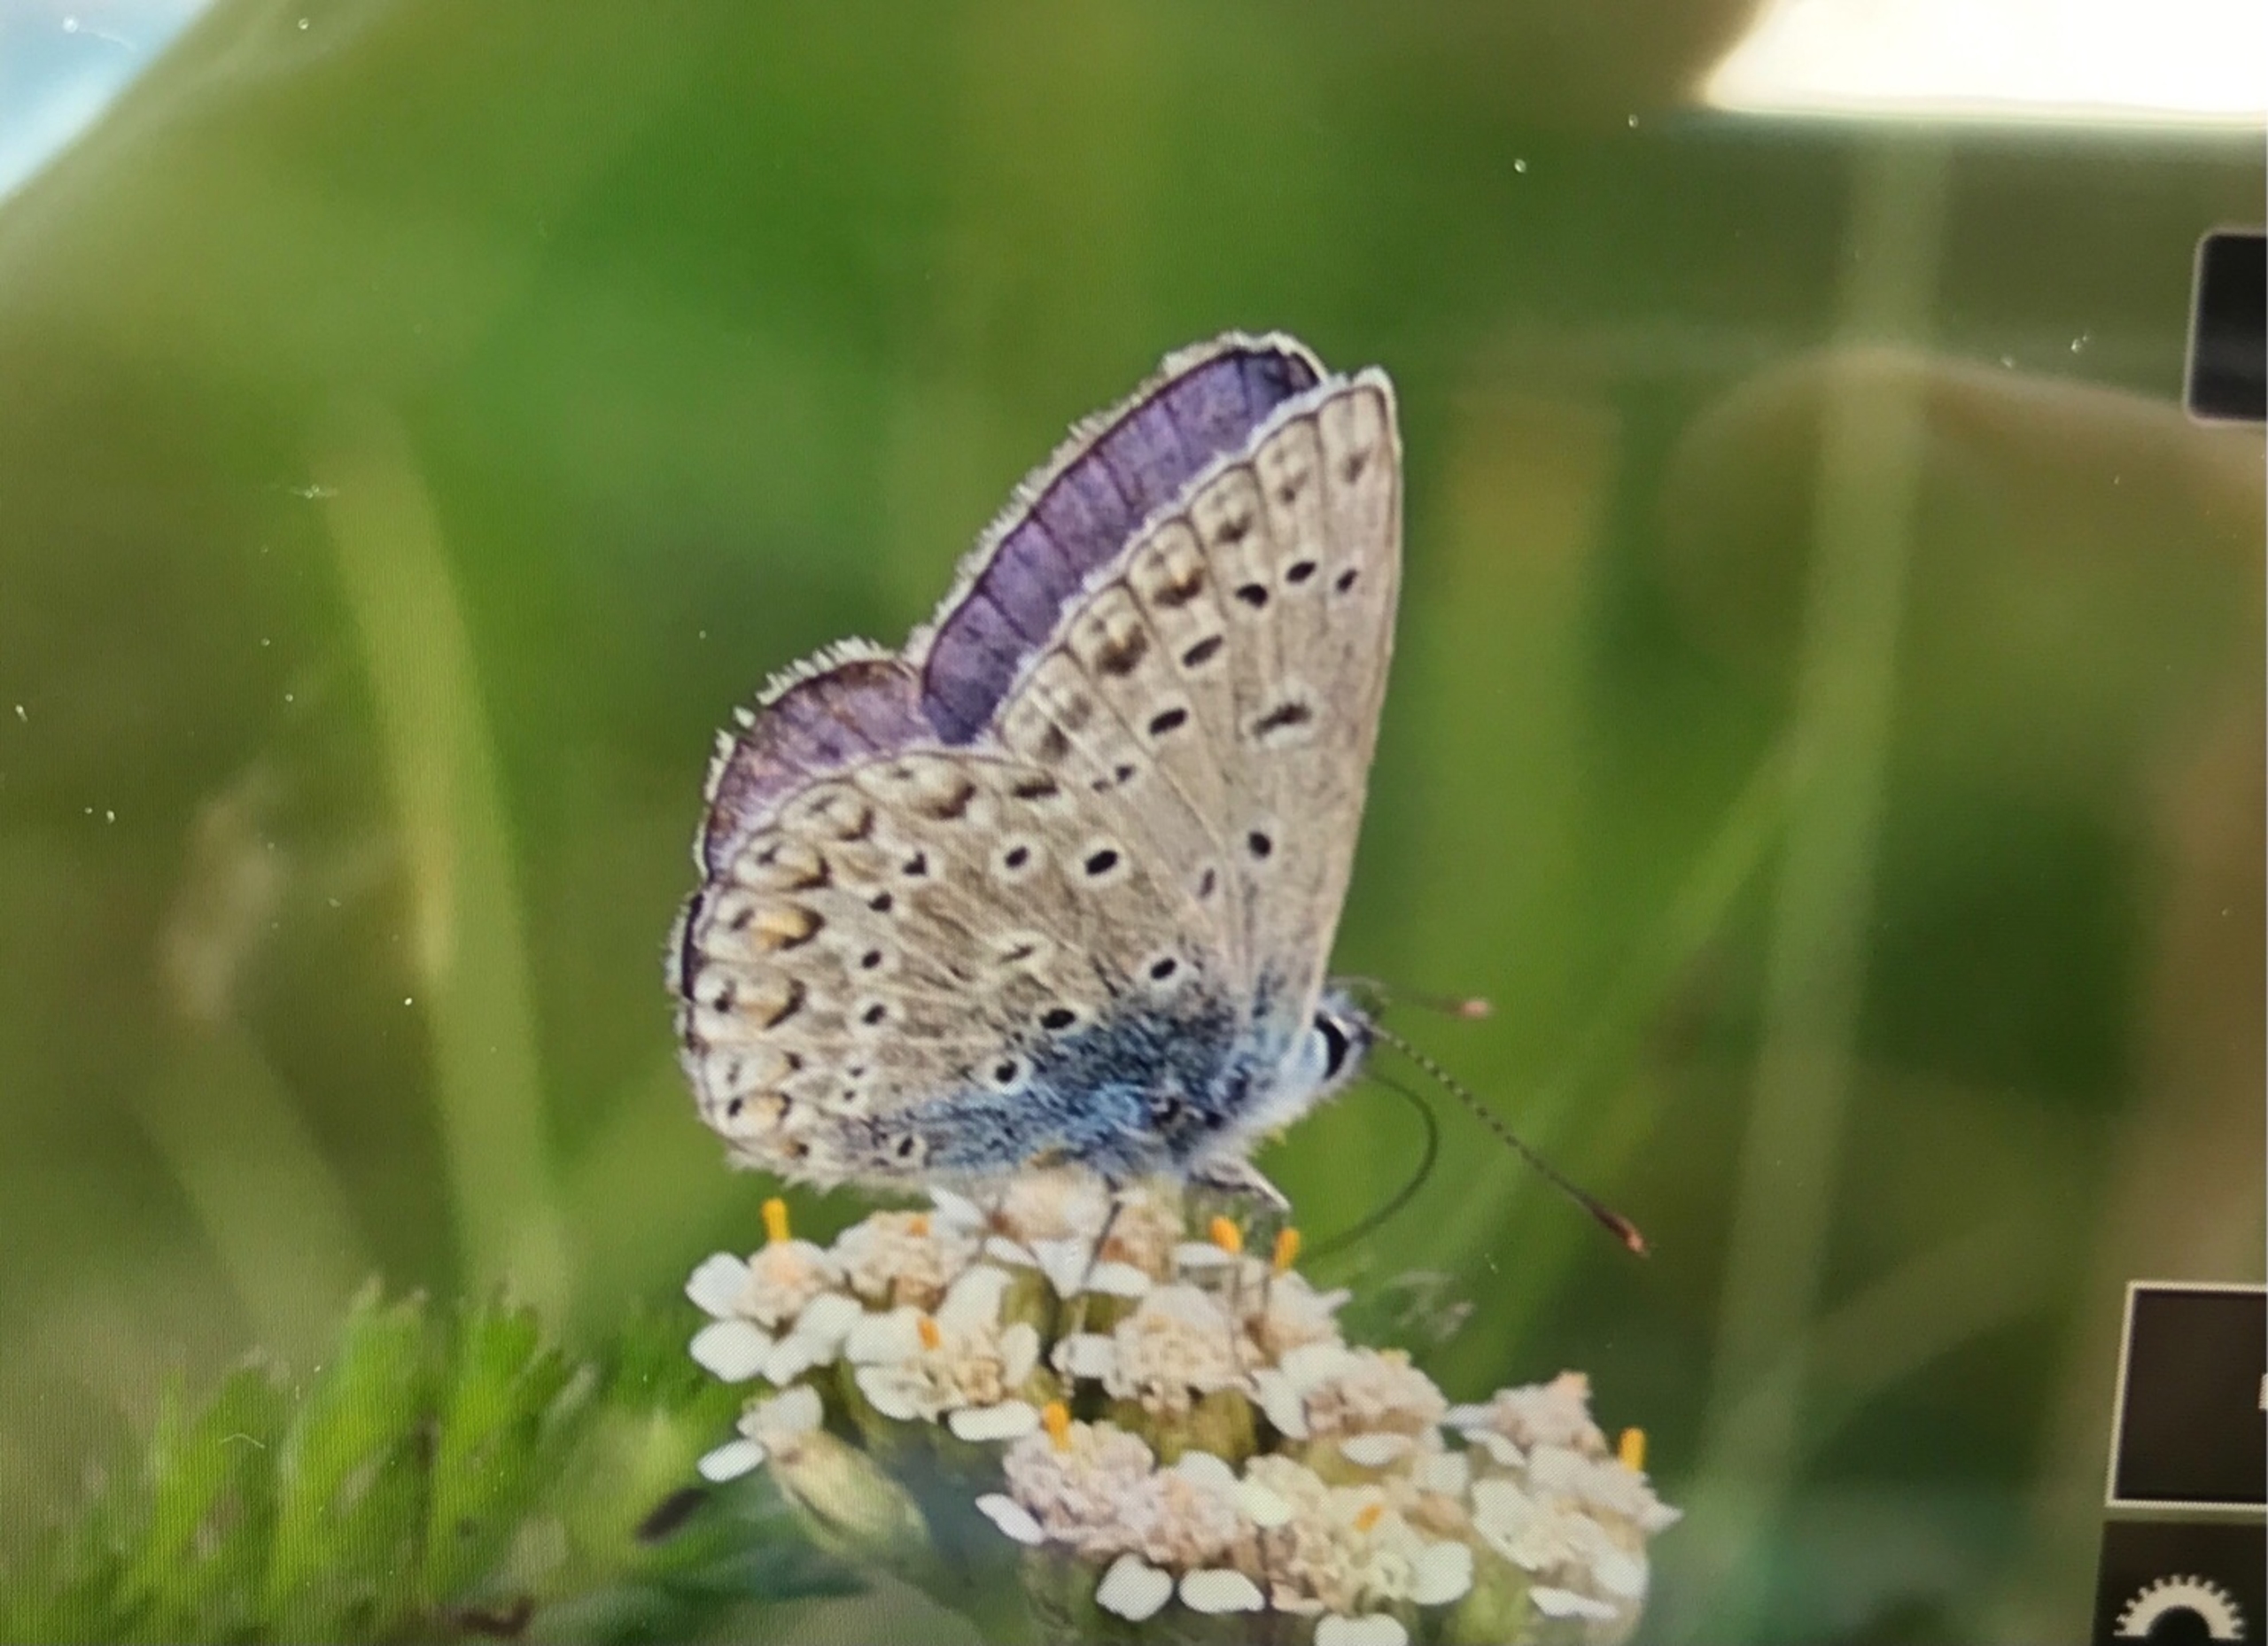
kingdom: Animalia
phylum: Arthropoda
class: Insecta
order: Lepidoptera
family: Lycaenidae
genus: Polyommatus
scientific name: Polyommatus icarus
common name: Almindelig blåfugl
